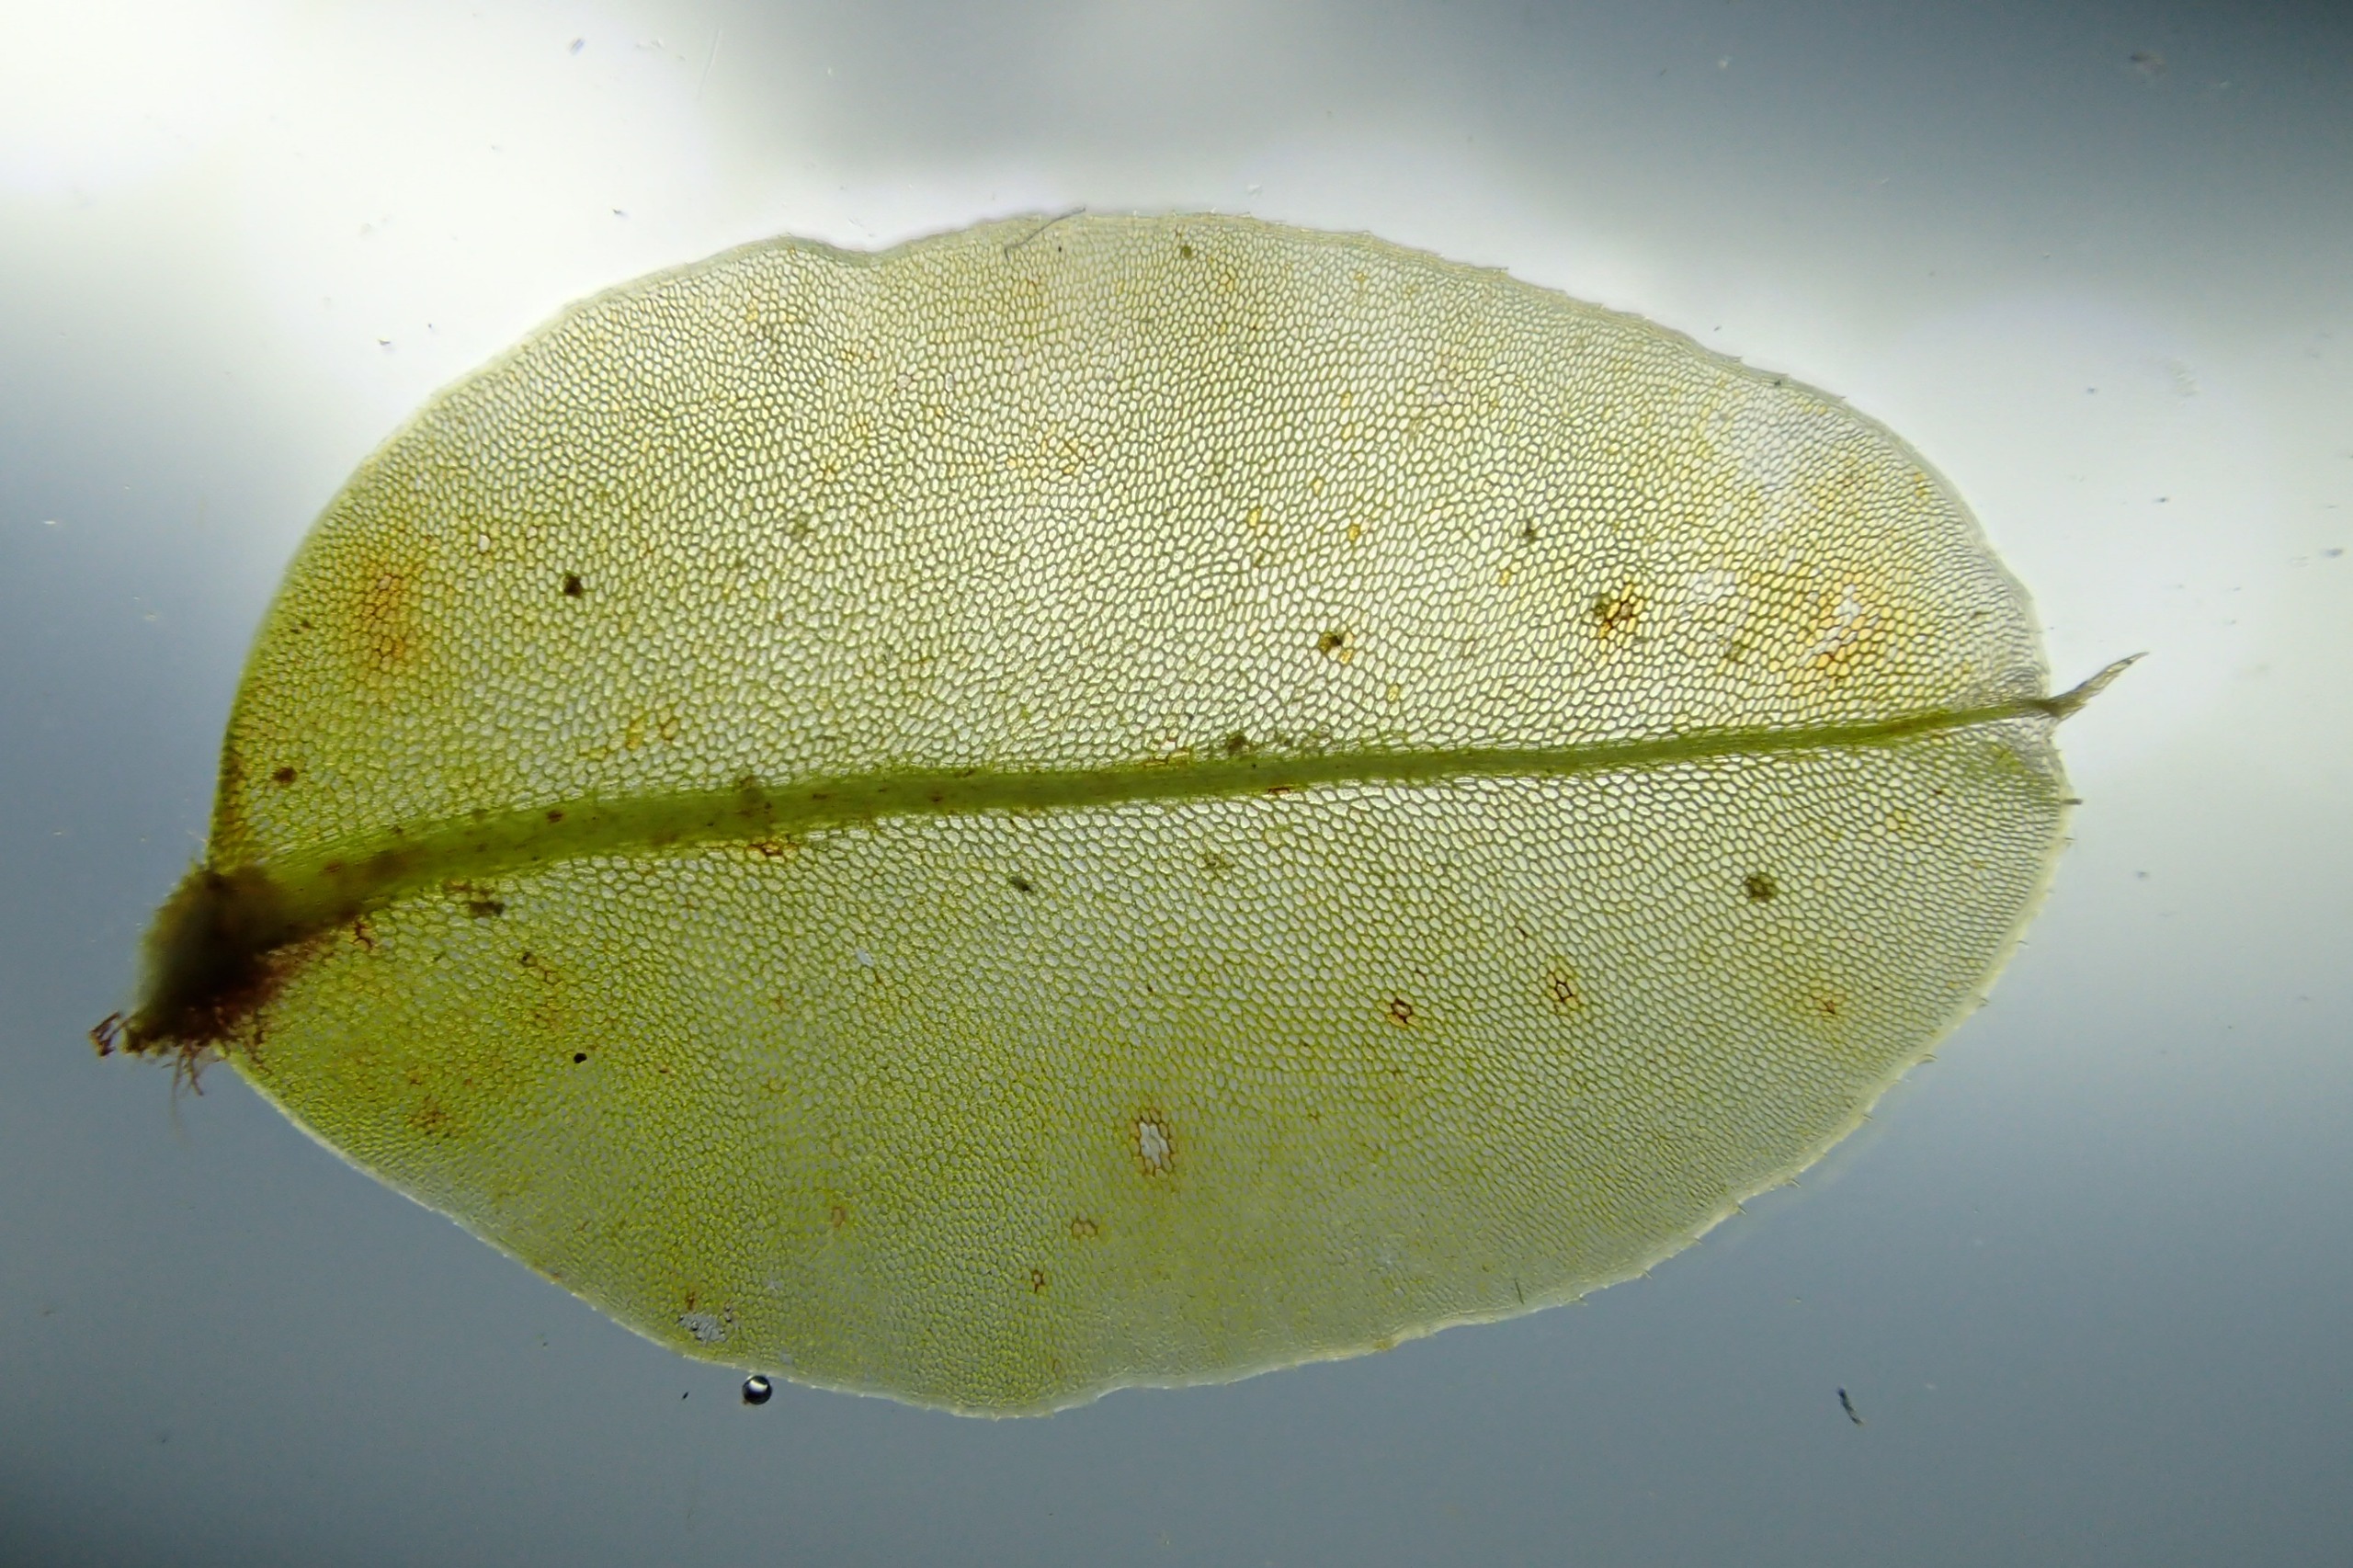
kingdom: Plantae
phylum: Bryophyta
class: Bryopsida
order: Bryales
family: Mniaceae
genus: Plagiomnium
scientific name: Plagiomnium ellipticum
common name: Mose-krybstjerne
